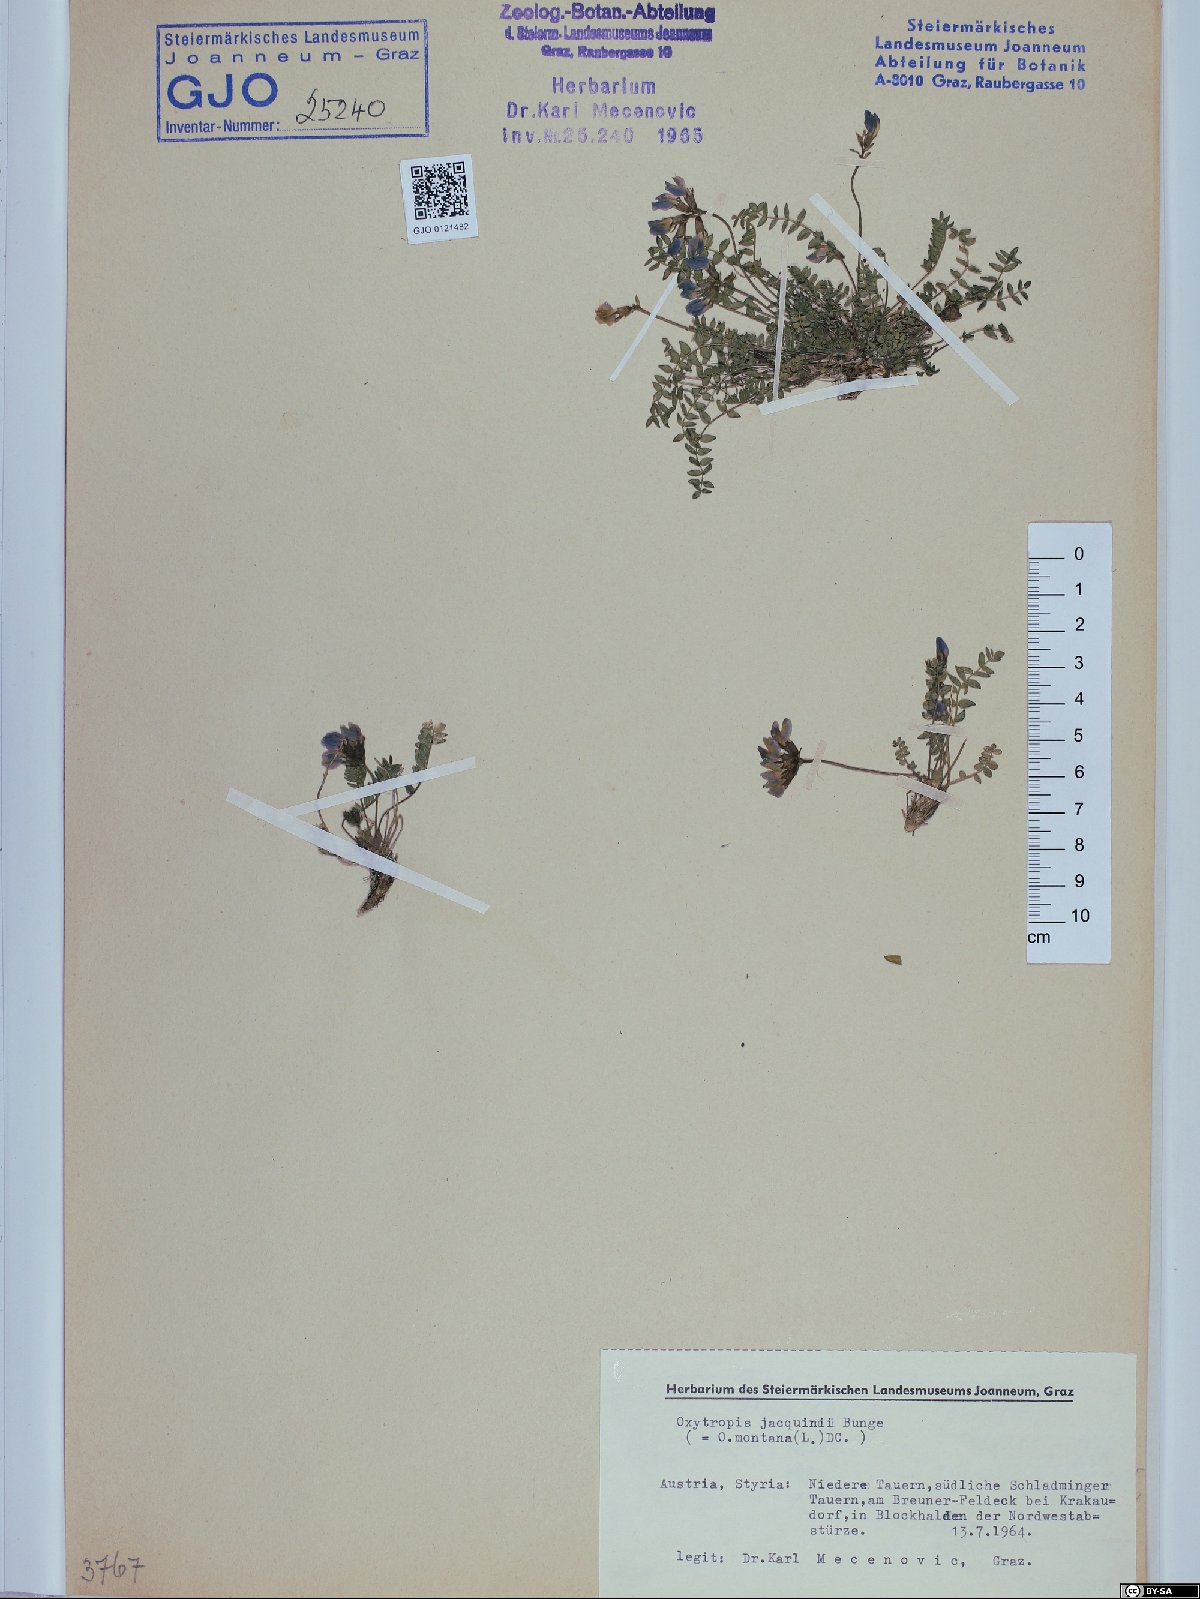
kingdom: Plantae
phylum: Tracheophyta
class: Magnoliopsida
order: Fabales
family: Fabaceae
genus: Oxytropis
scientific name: Oxytropis montana
